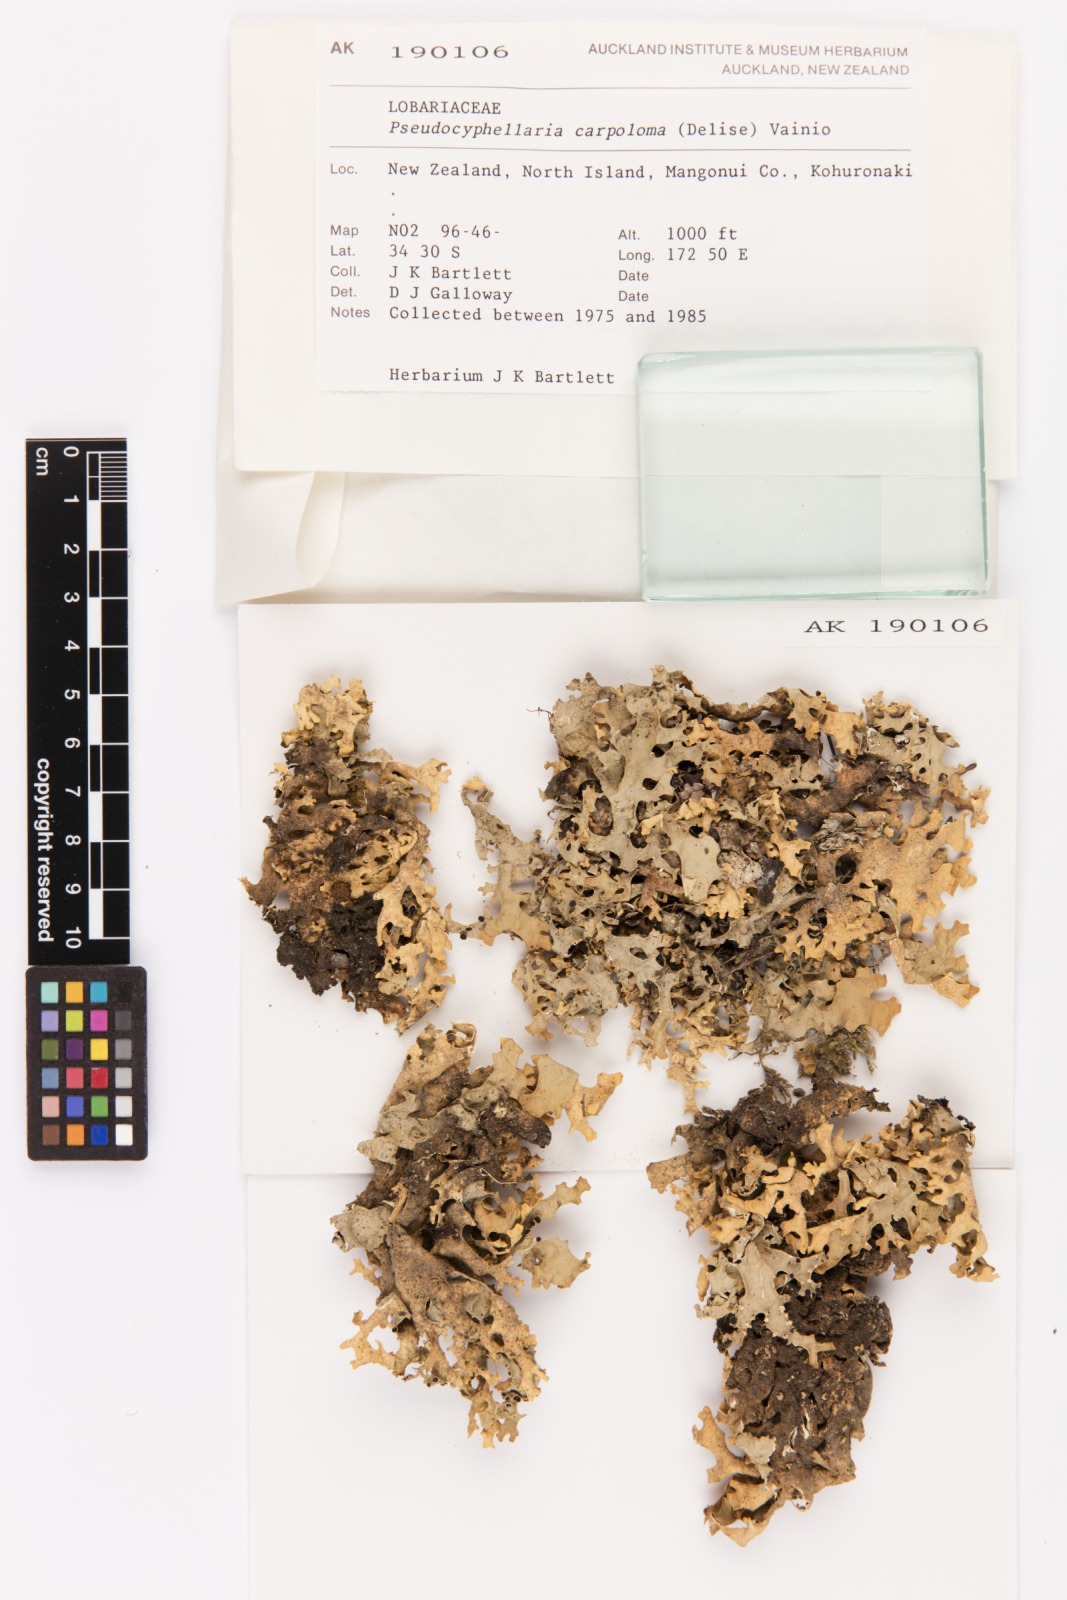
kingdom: Fungi
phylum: Ascomycota
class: Lecanoromycetes
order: Peltigerales
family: Lobariaceae
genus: Pseudocyphellaria
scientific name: Pseudocyphellaria carpoloma
